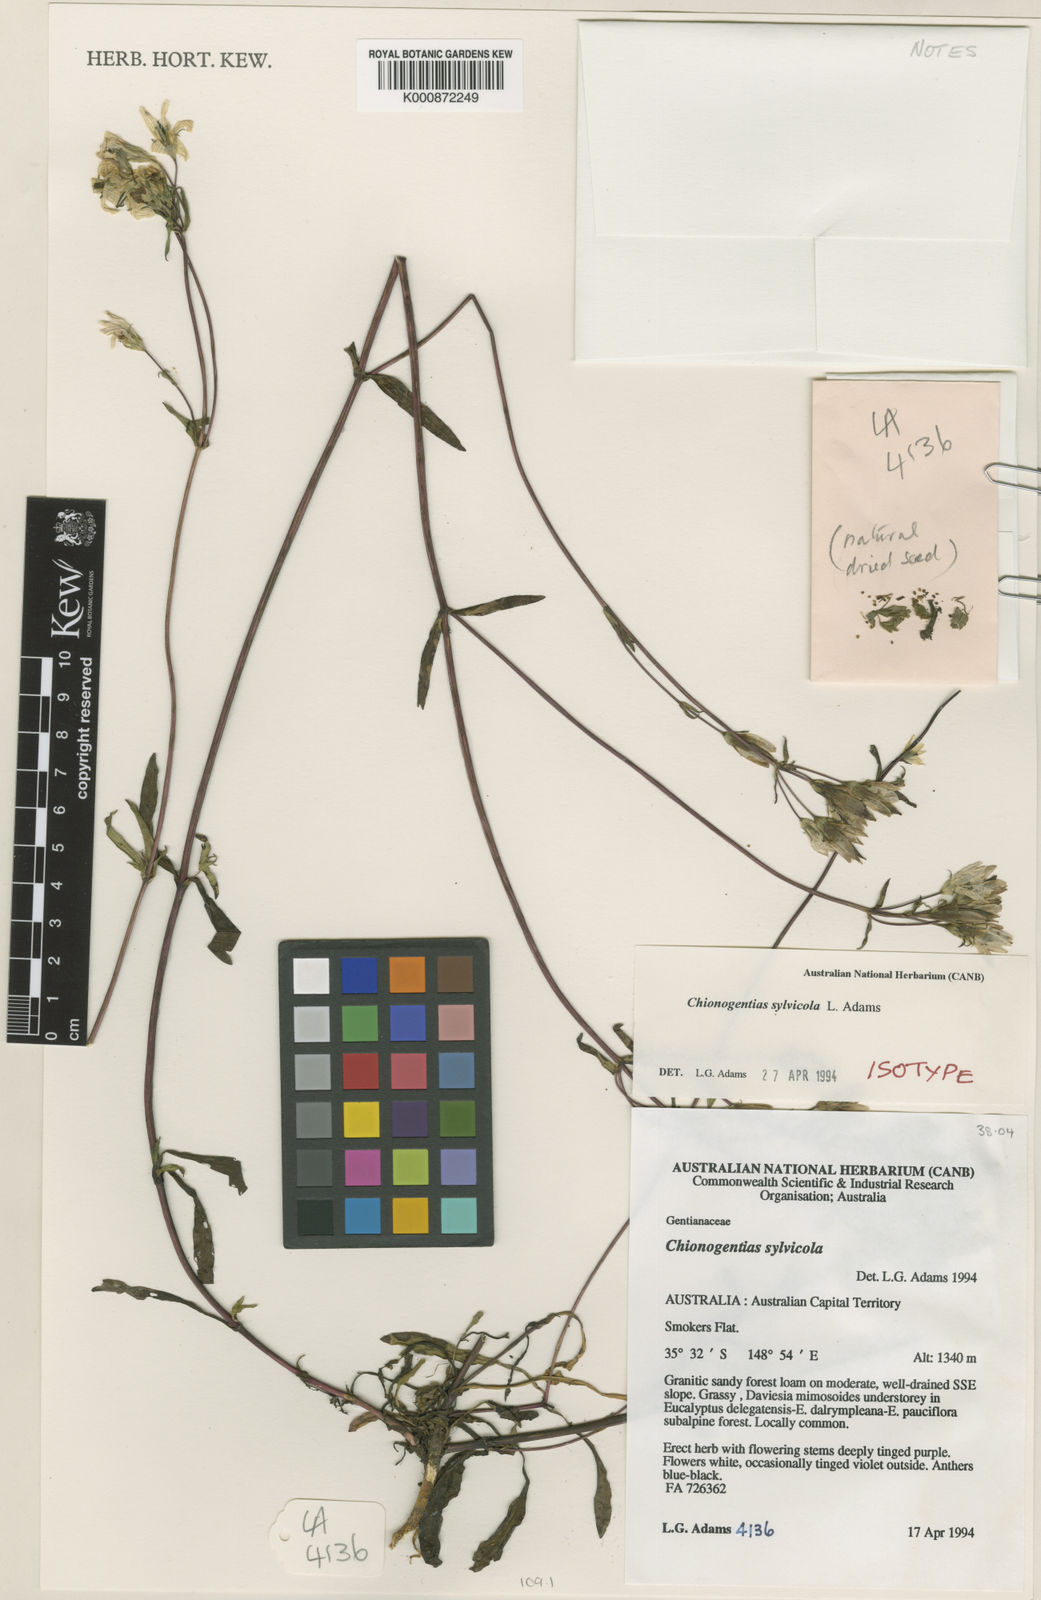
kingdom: Plantae
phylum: Tracheophyta
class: Magnoliopsida
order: Gentianales
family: Gentianaceae
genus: Gentianella
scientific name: Gentianella sylvicola
